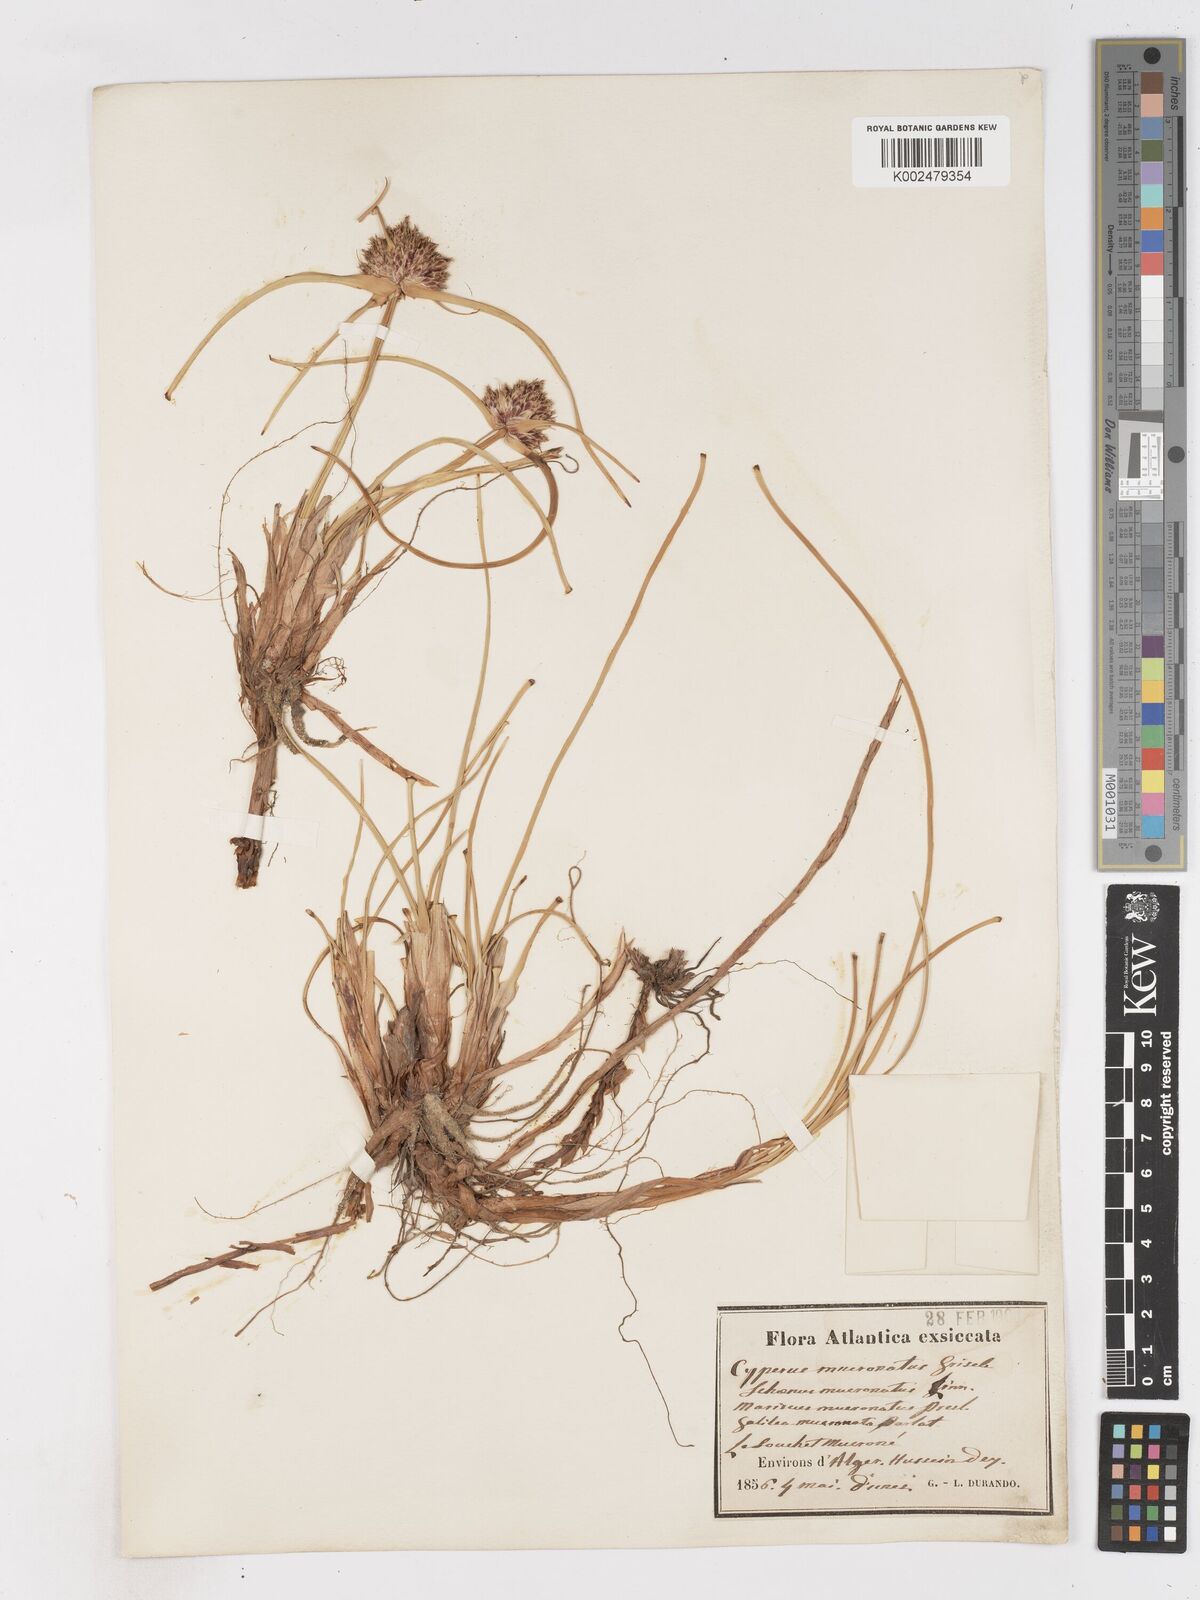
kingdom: Plantae
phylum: Tracheophyta
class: Liliopsida
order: Poales
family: Cyperaceae
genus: Cyperus
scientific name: Cyperus capitatus
